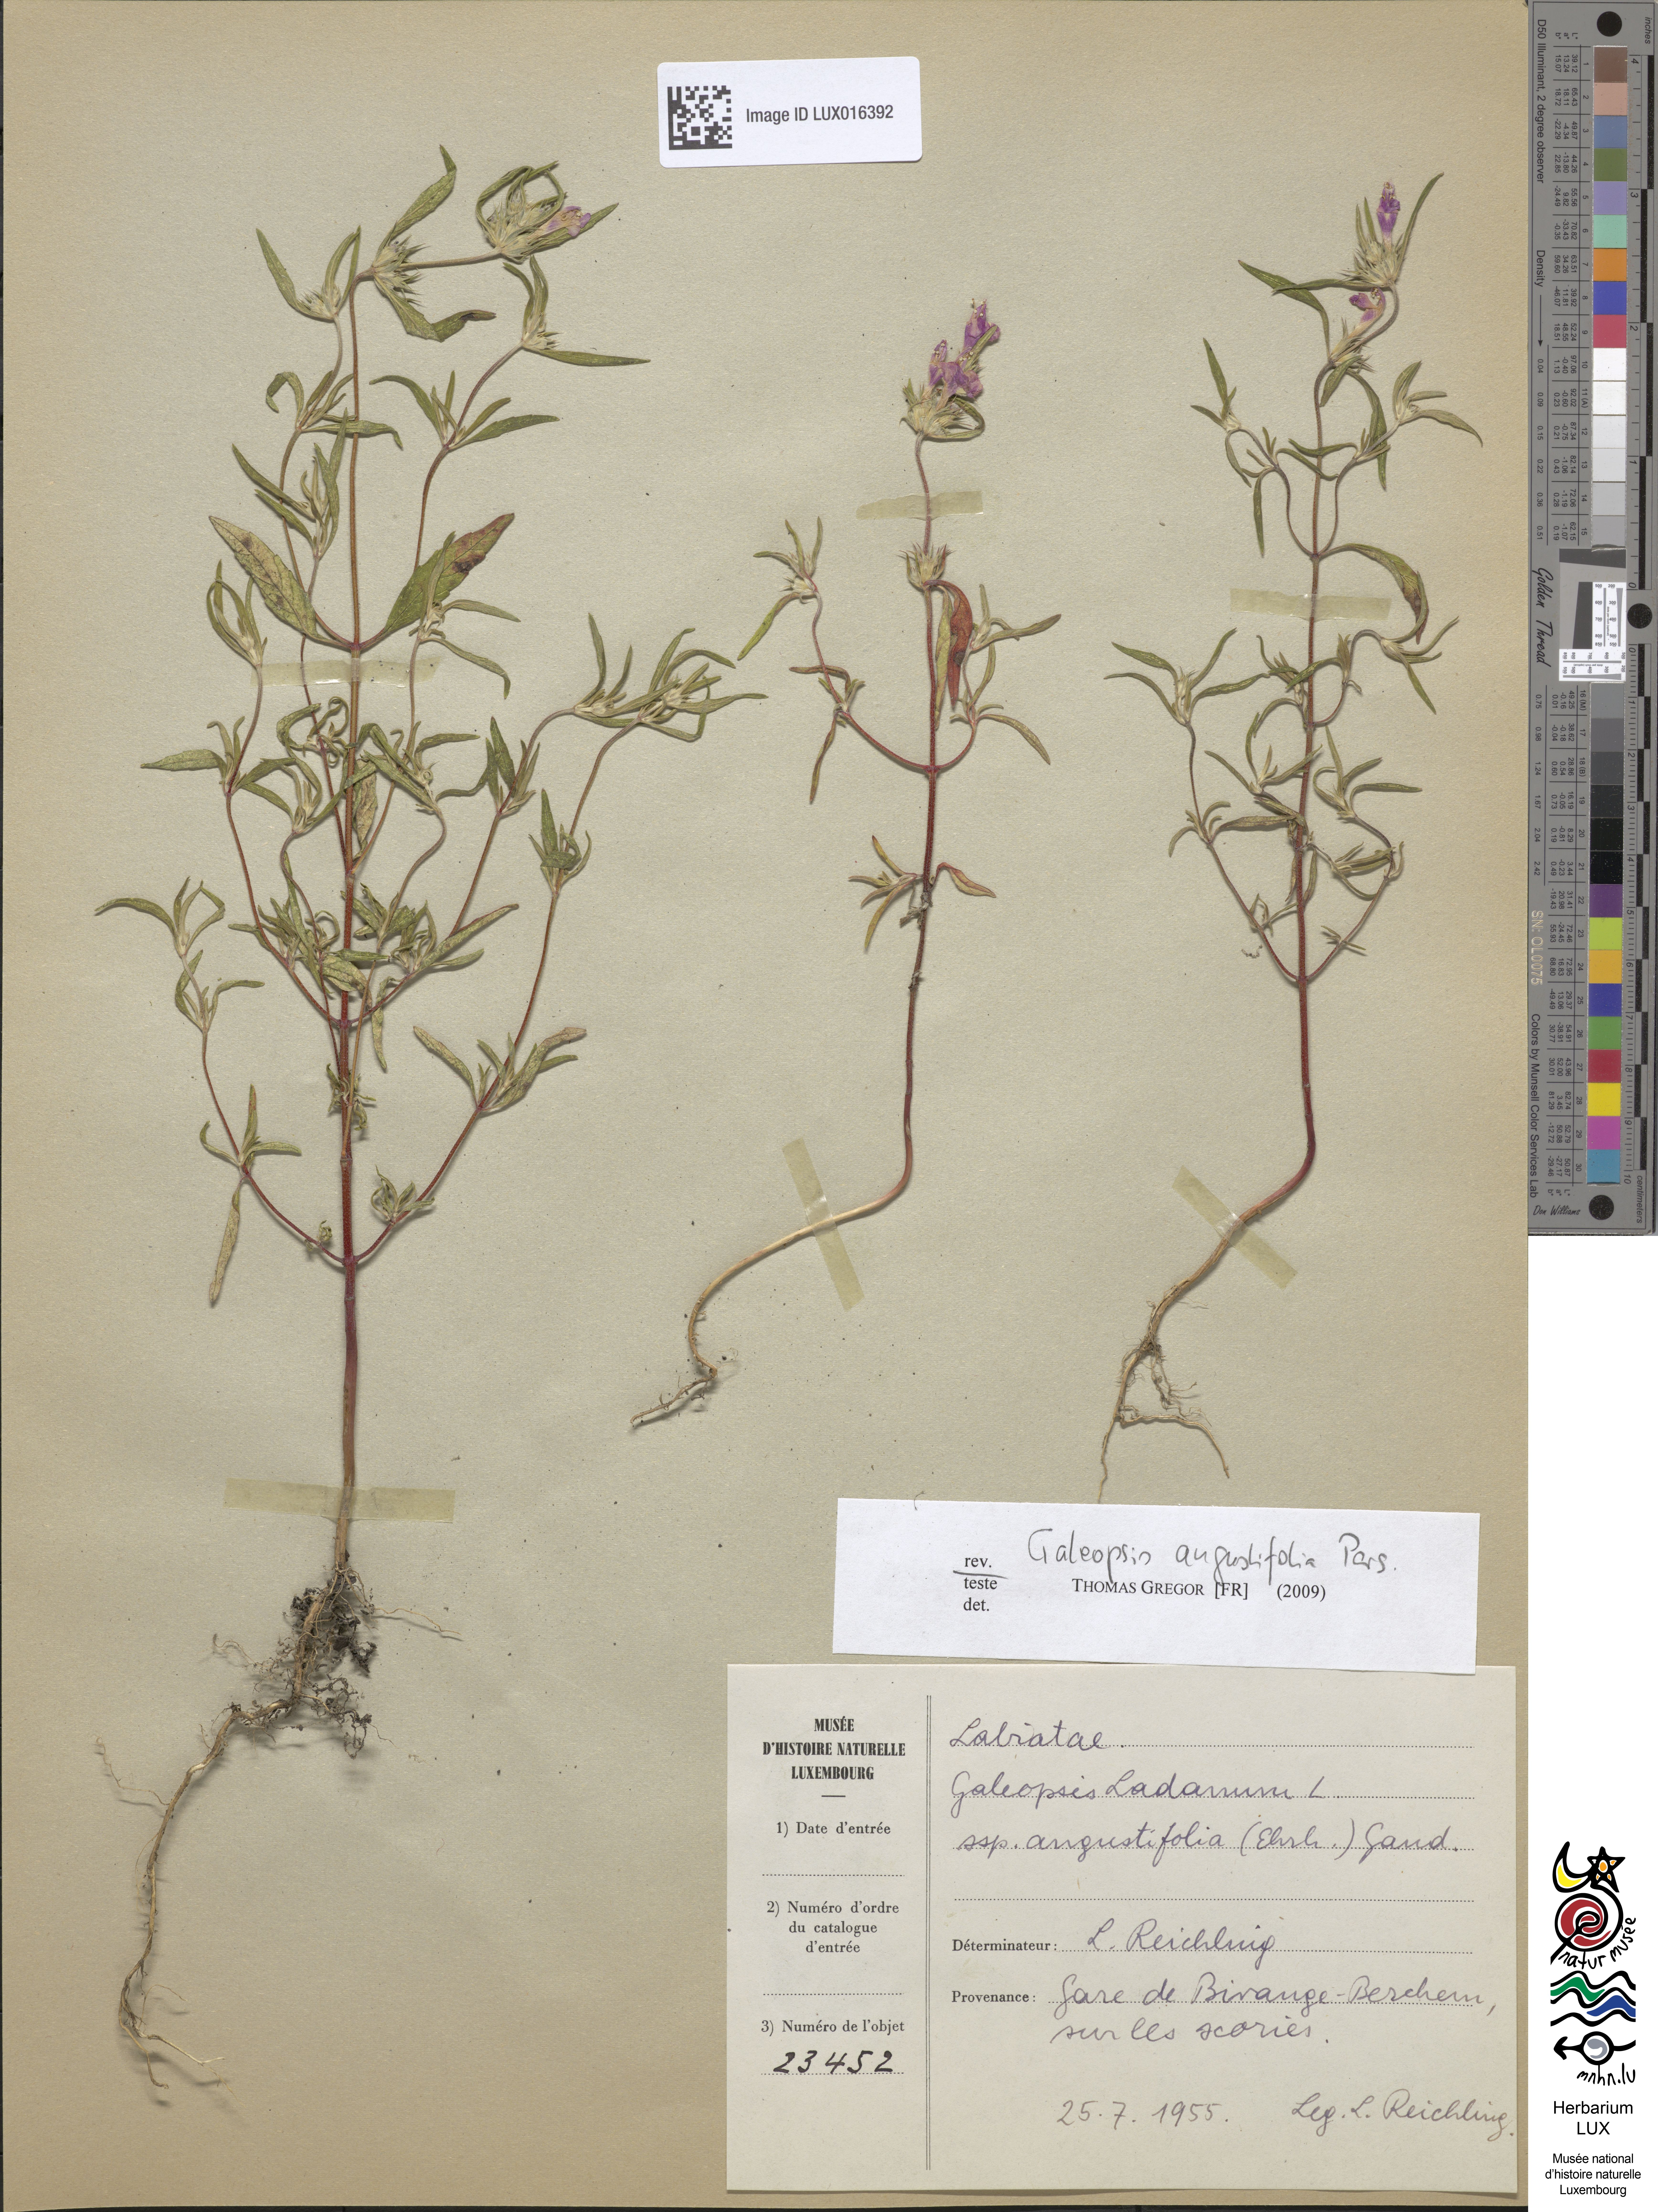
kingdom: Plantae
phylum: Tracheophyta
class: Magnoliopsida
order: Lamiales
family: Lamiaceae
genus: Galeopsis
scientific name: Galeopsis angustifolia
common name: Red hemp-nettle
